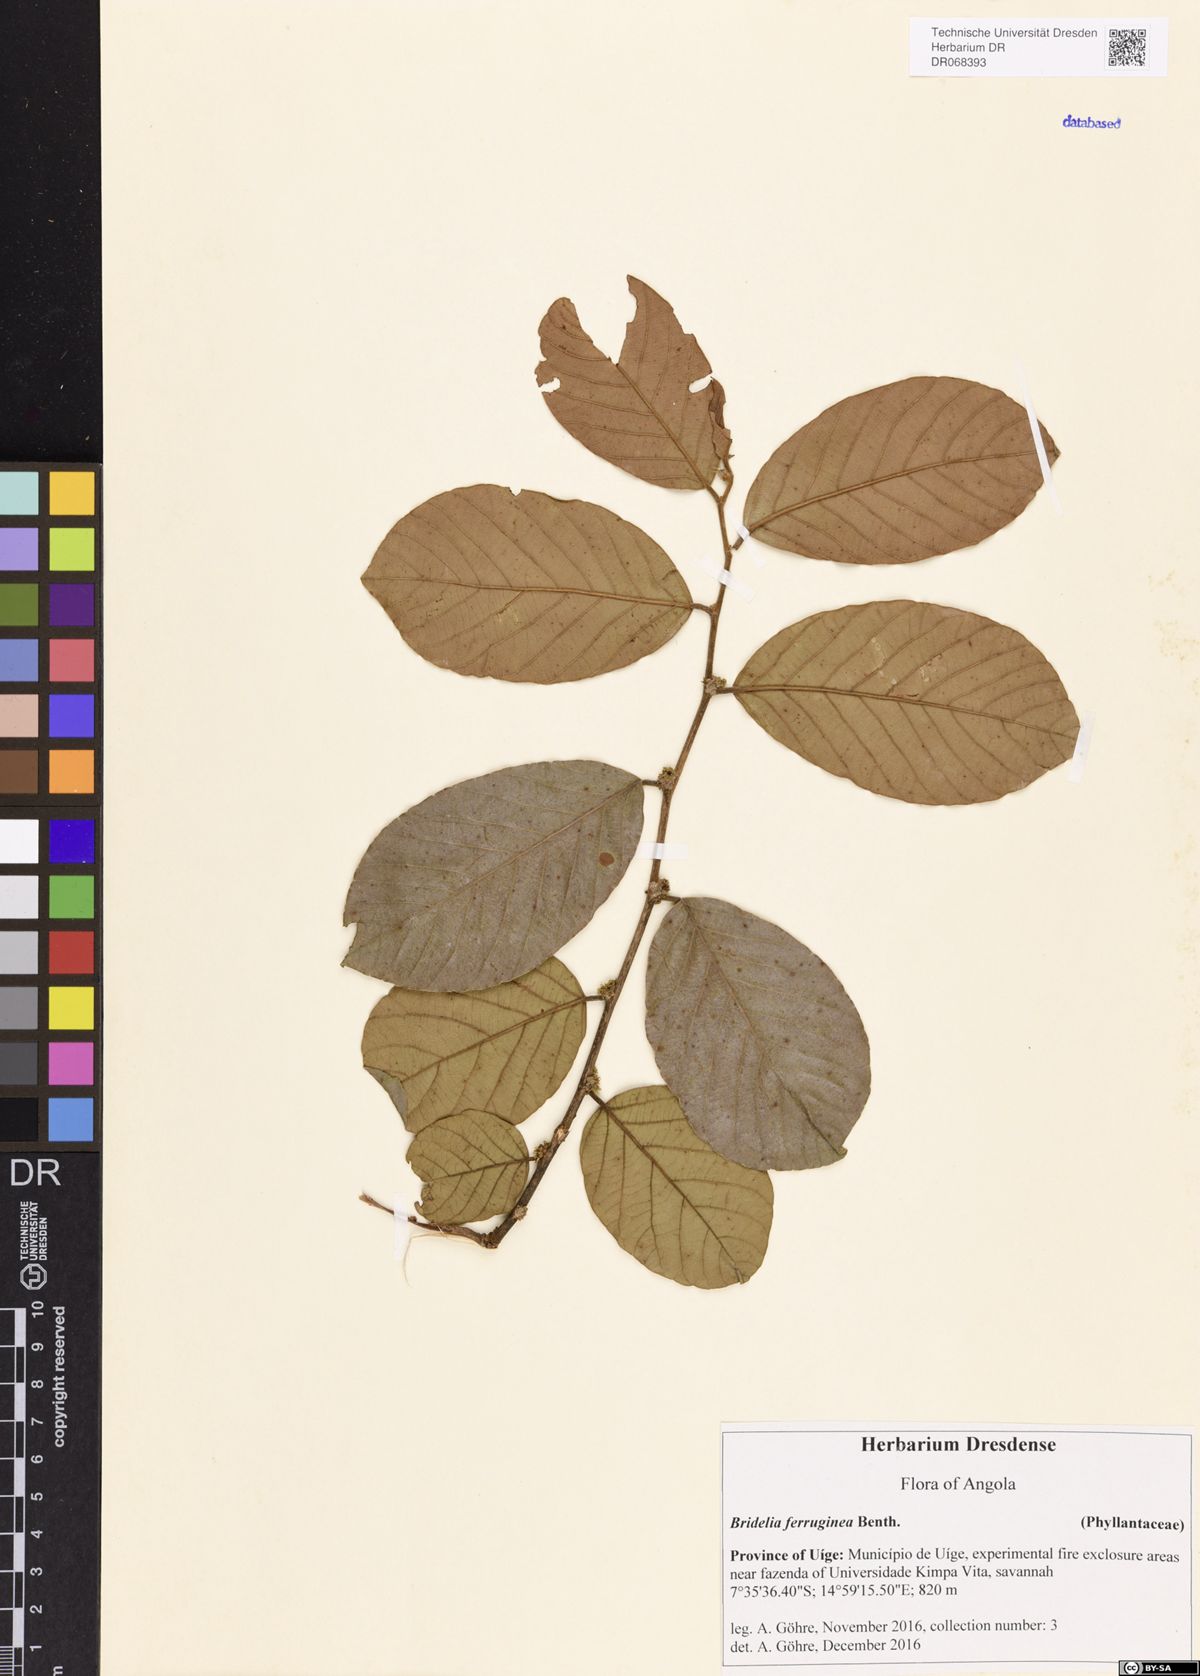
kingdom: Plantae
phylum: Tracheophyta
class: Magnoliopsida
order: Malpighiales
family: Phyllanthaceae
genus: Bridelia
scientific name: Bridelia ferruginea
